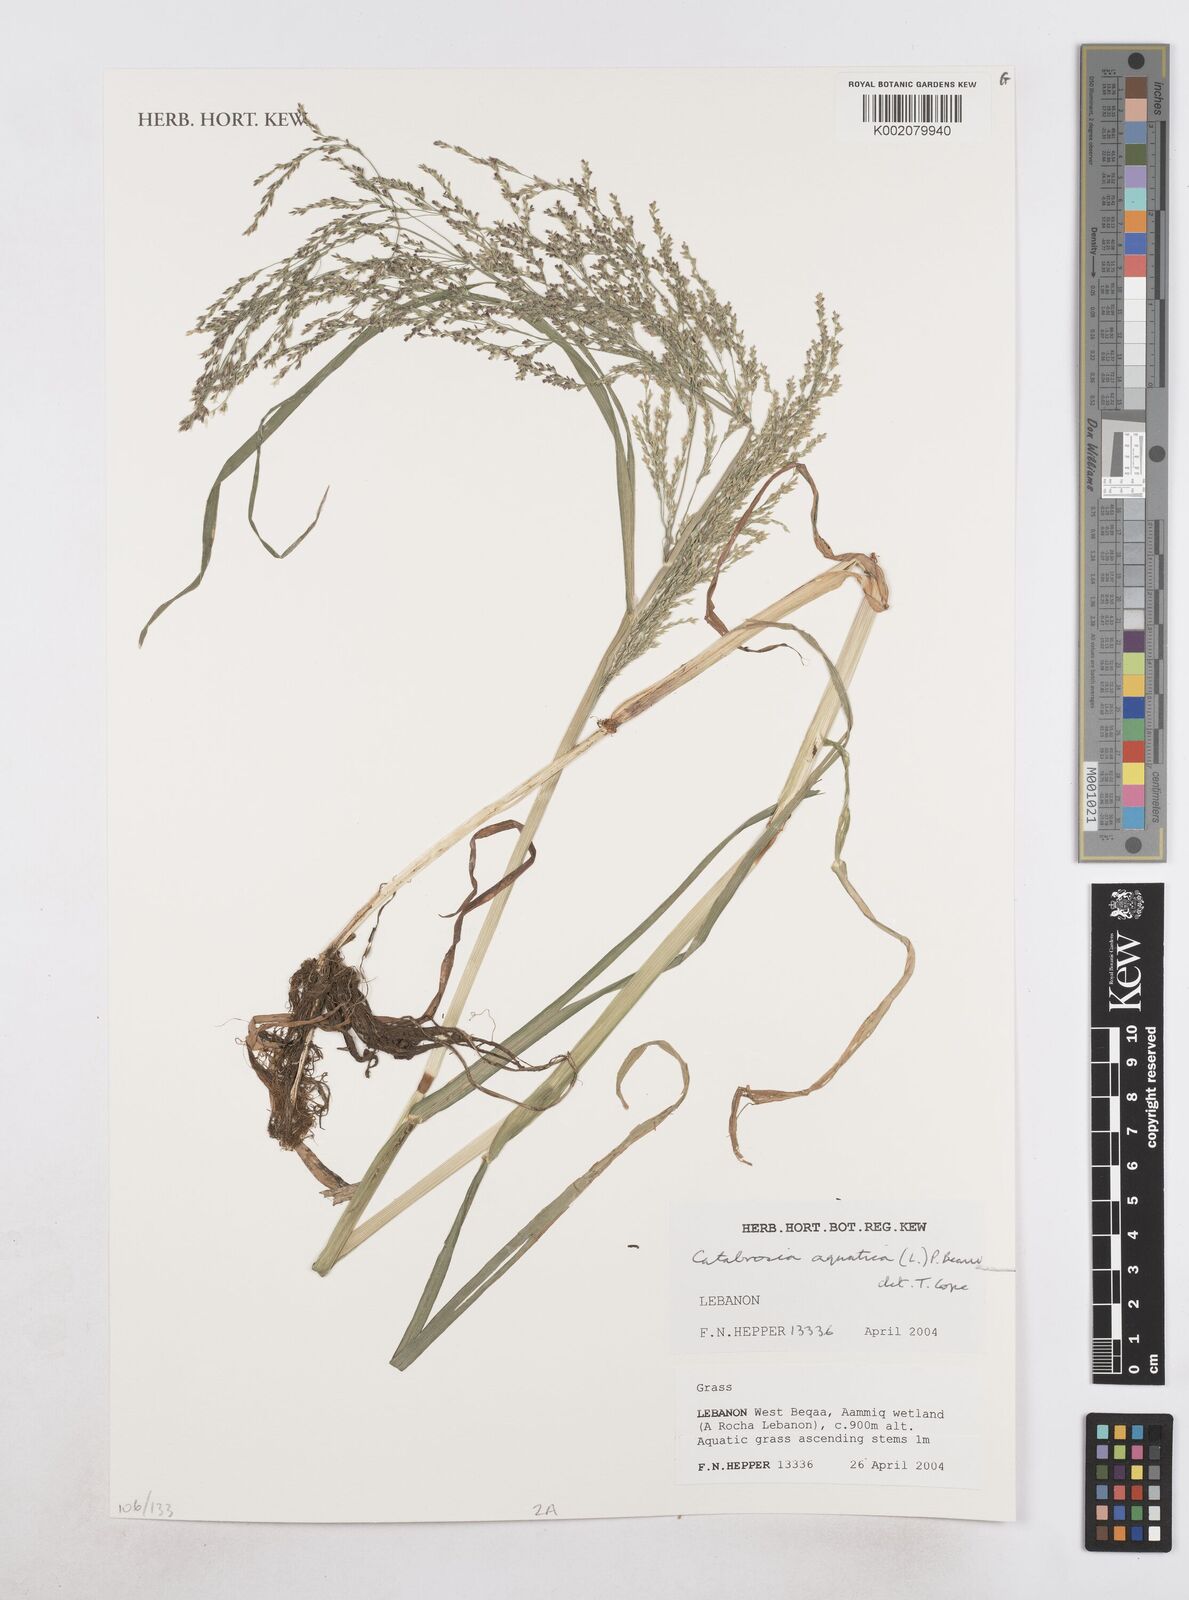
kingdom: Plantae
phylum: Tracheophyta
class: Liliopsida
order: Poales
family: Poaceae
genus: Catabrosa
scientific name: Catabrosa aquatica
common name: Whorl-grass
